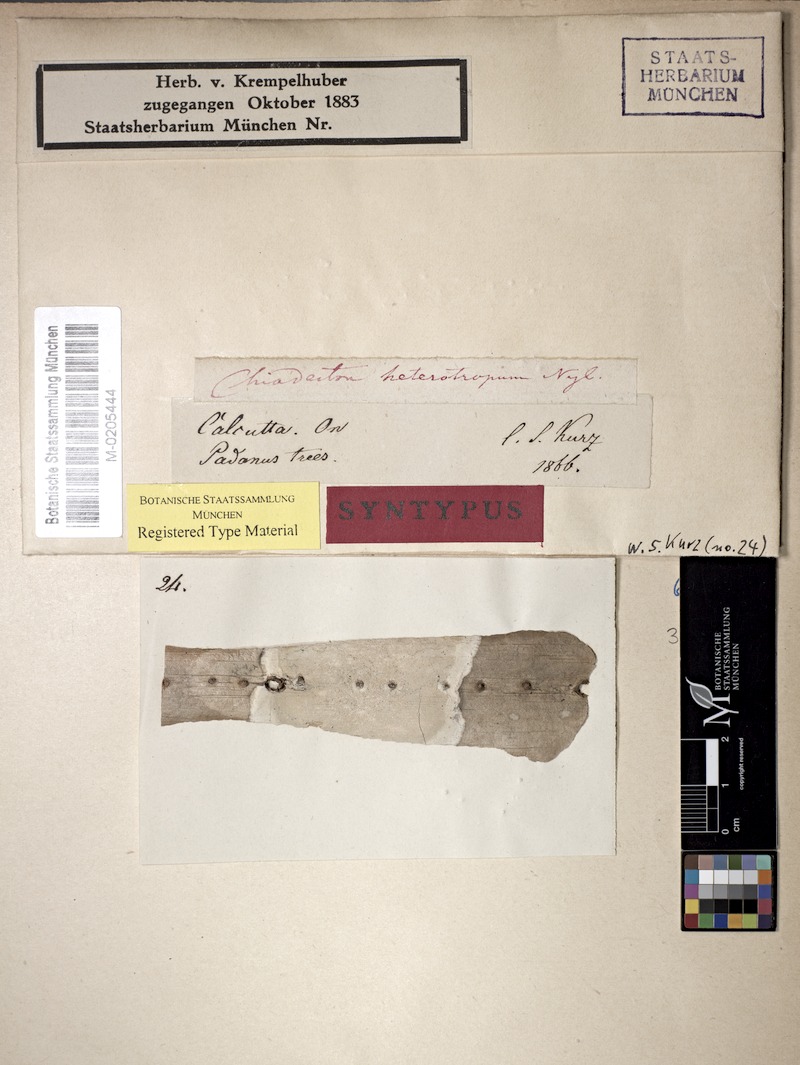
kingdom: Fungi
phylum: Ascomycota
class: Arthoniomycetes
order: Arthoniales
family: Roccellaceae
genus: Chiodecton
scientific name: Chiodecton heterotropum
